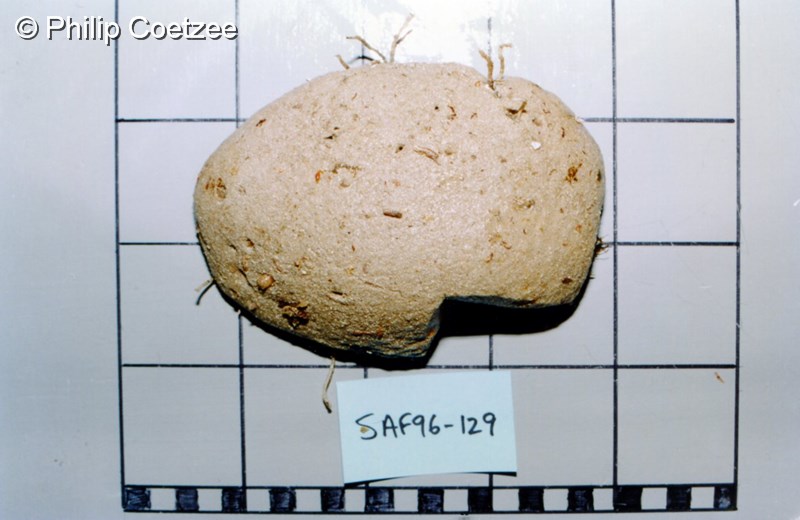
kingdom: Animalia
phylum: Chordata
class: Ascidiacea
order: Aplousobranchia
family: Clavelinidae
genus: Pycnoclavella
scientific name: Pycnoclavella filamentosa
